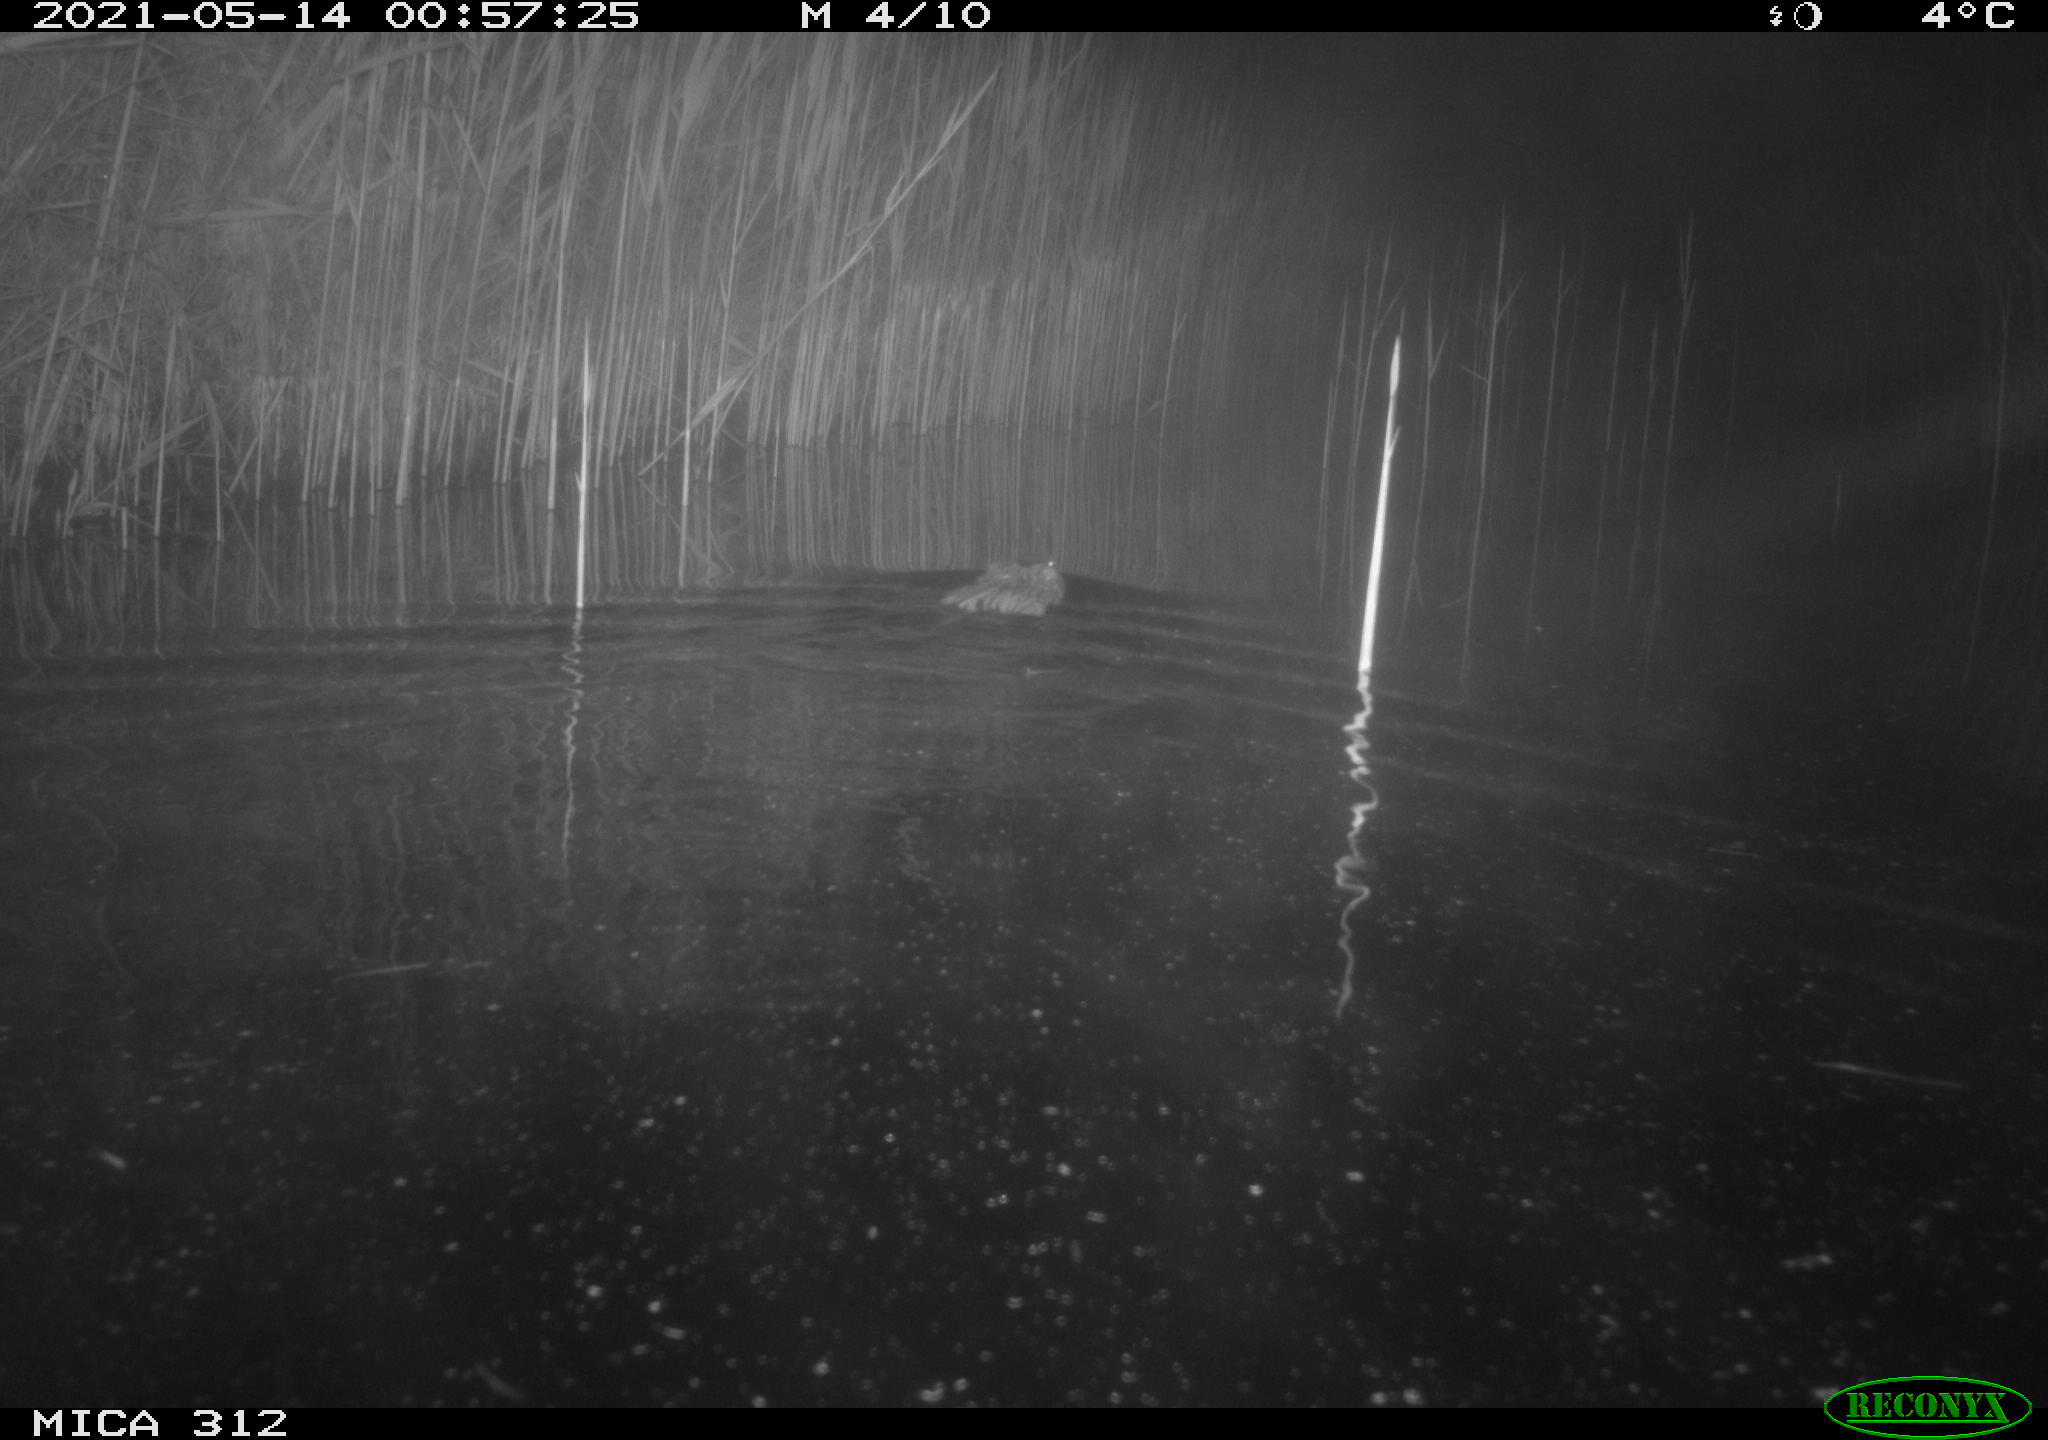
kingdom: Animalia
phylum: Chordata
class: Mammalia
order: Rodentia
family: Cricetidae
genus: Ondatra
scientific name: Ondatra zibethicus
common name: Muskrat
